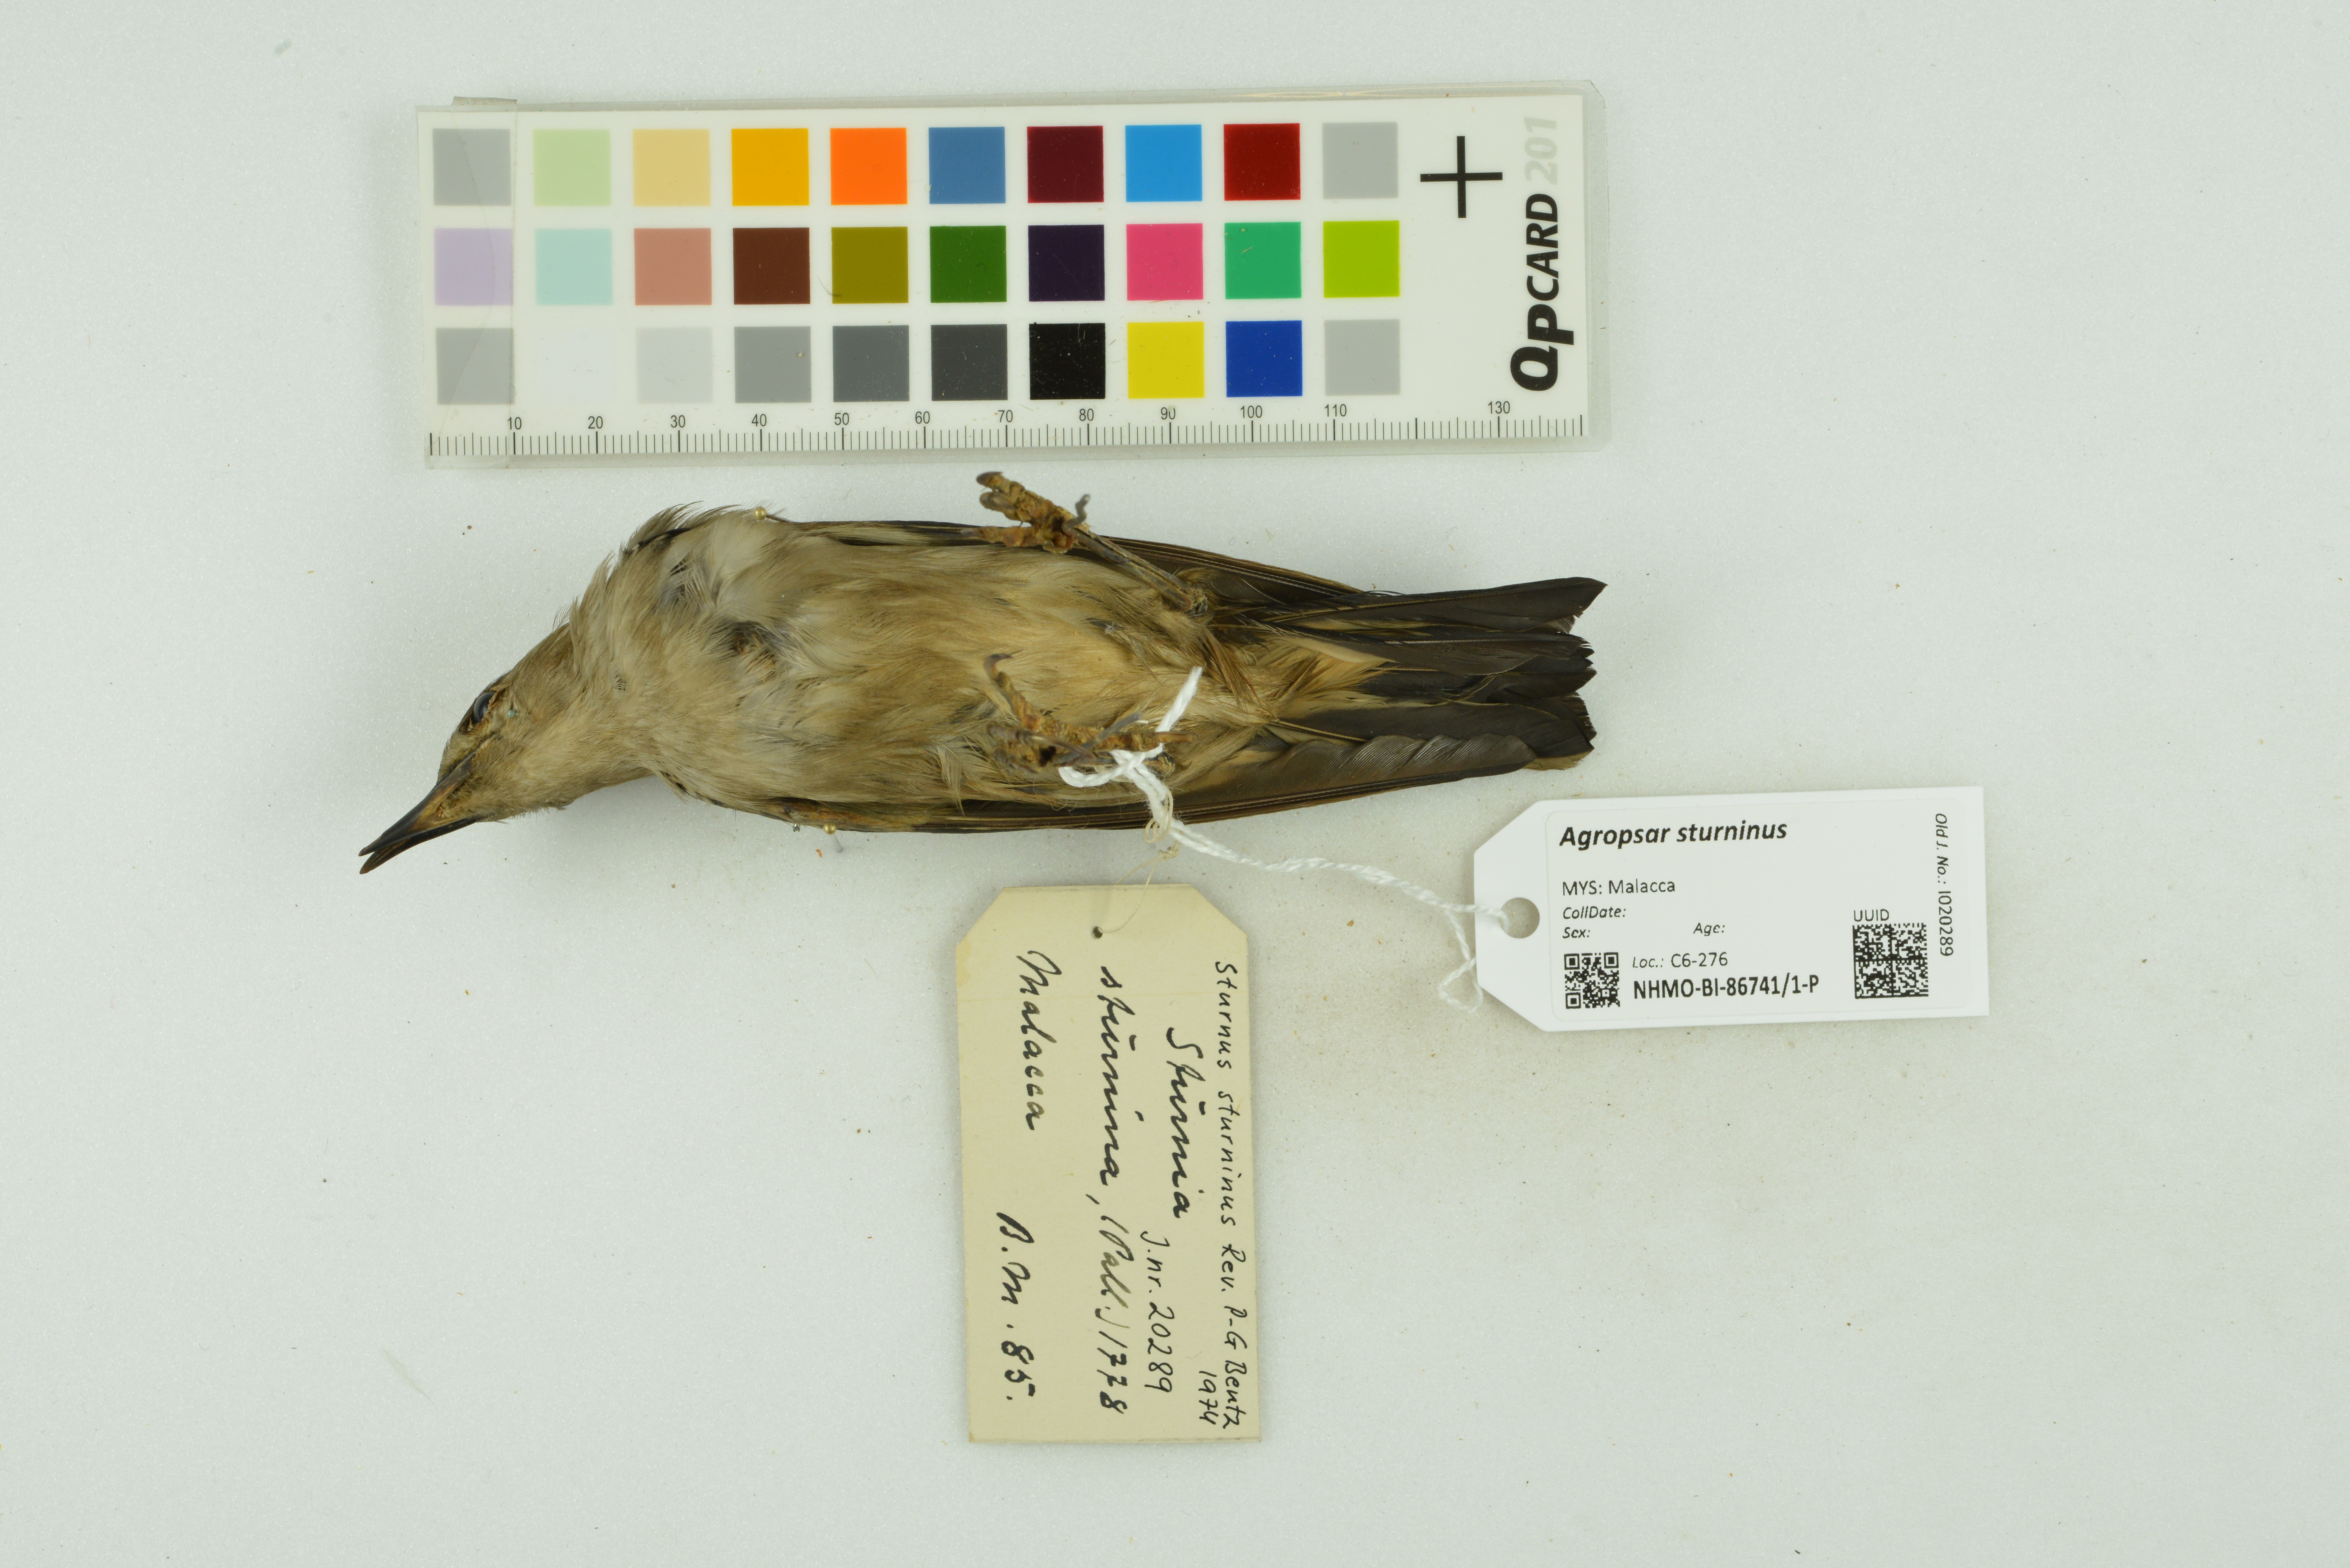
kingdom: Animalia
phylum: Chordata
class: Aves
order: Passeriformes
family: Sturnidae
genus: Agropsar
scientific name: Agropsar sturninus
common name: Daurian starling
